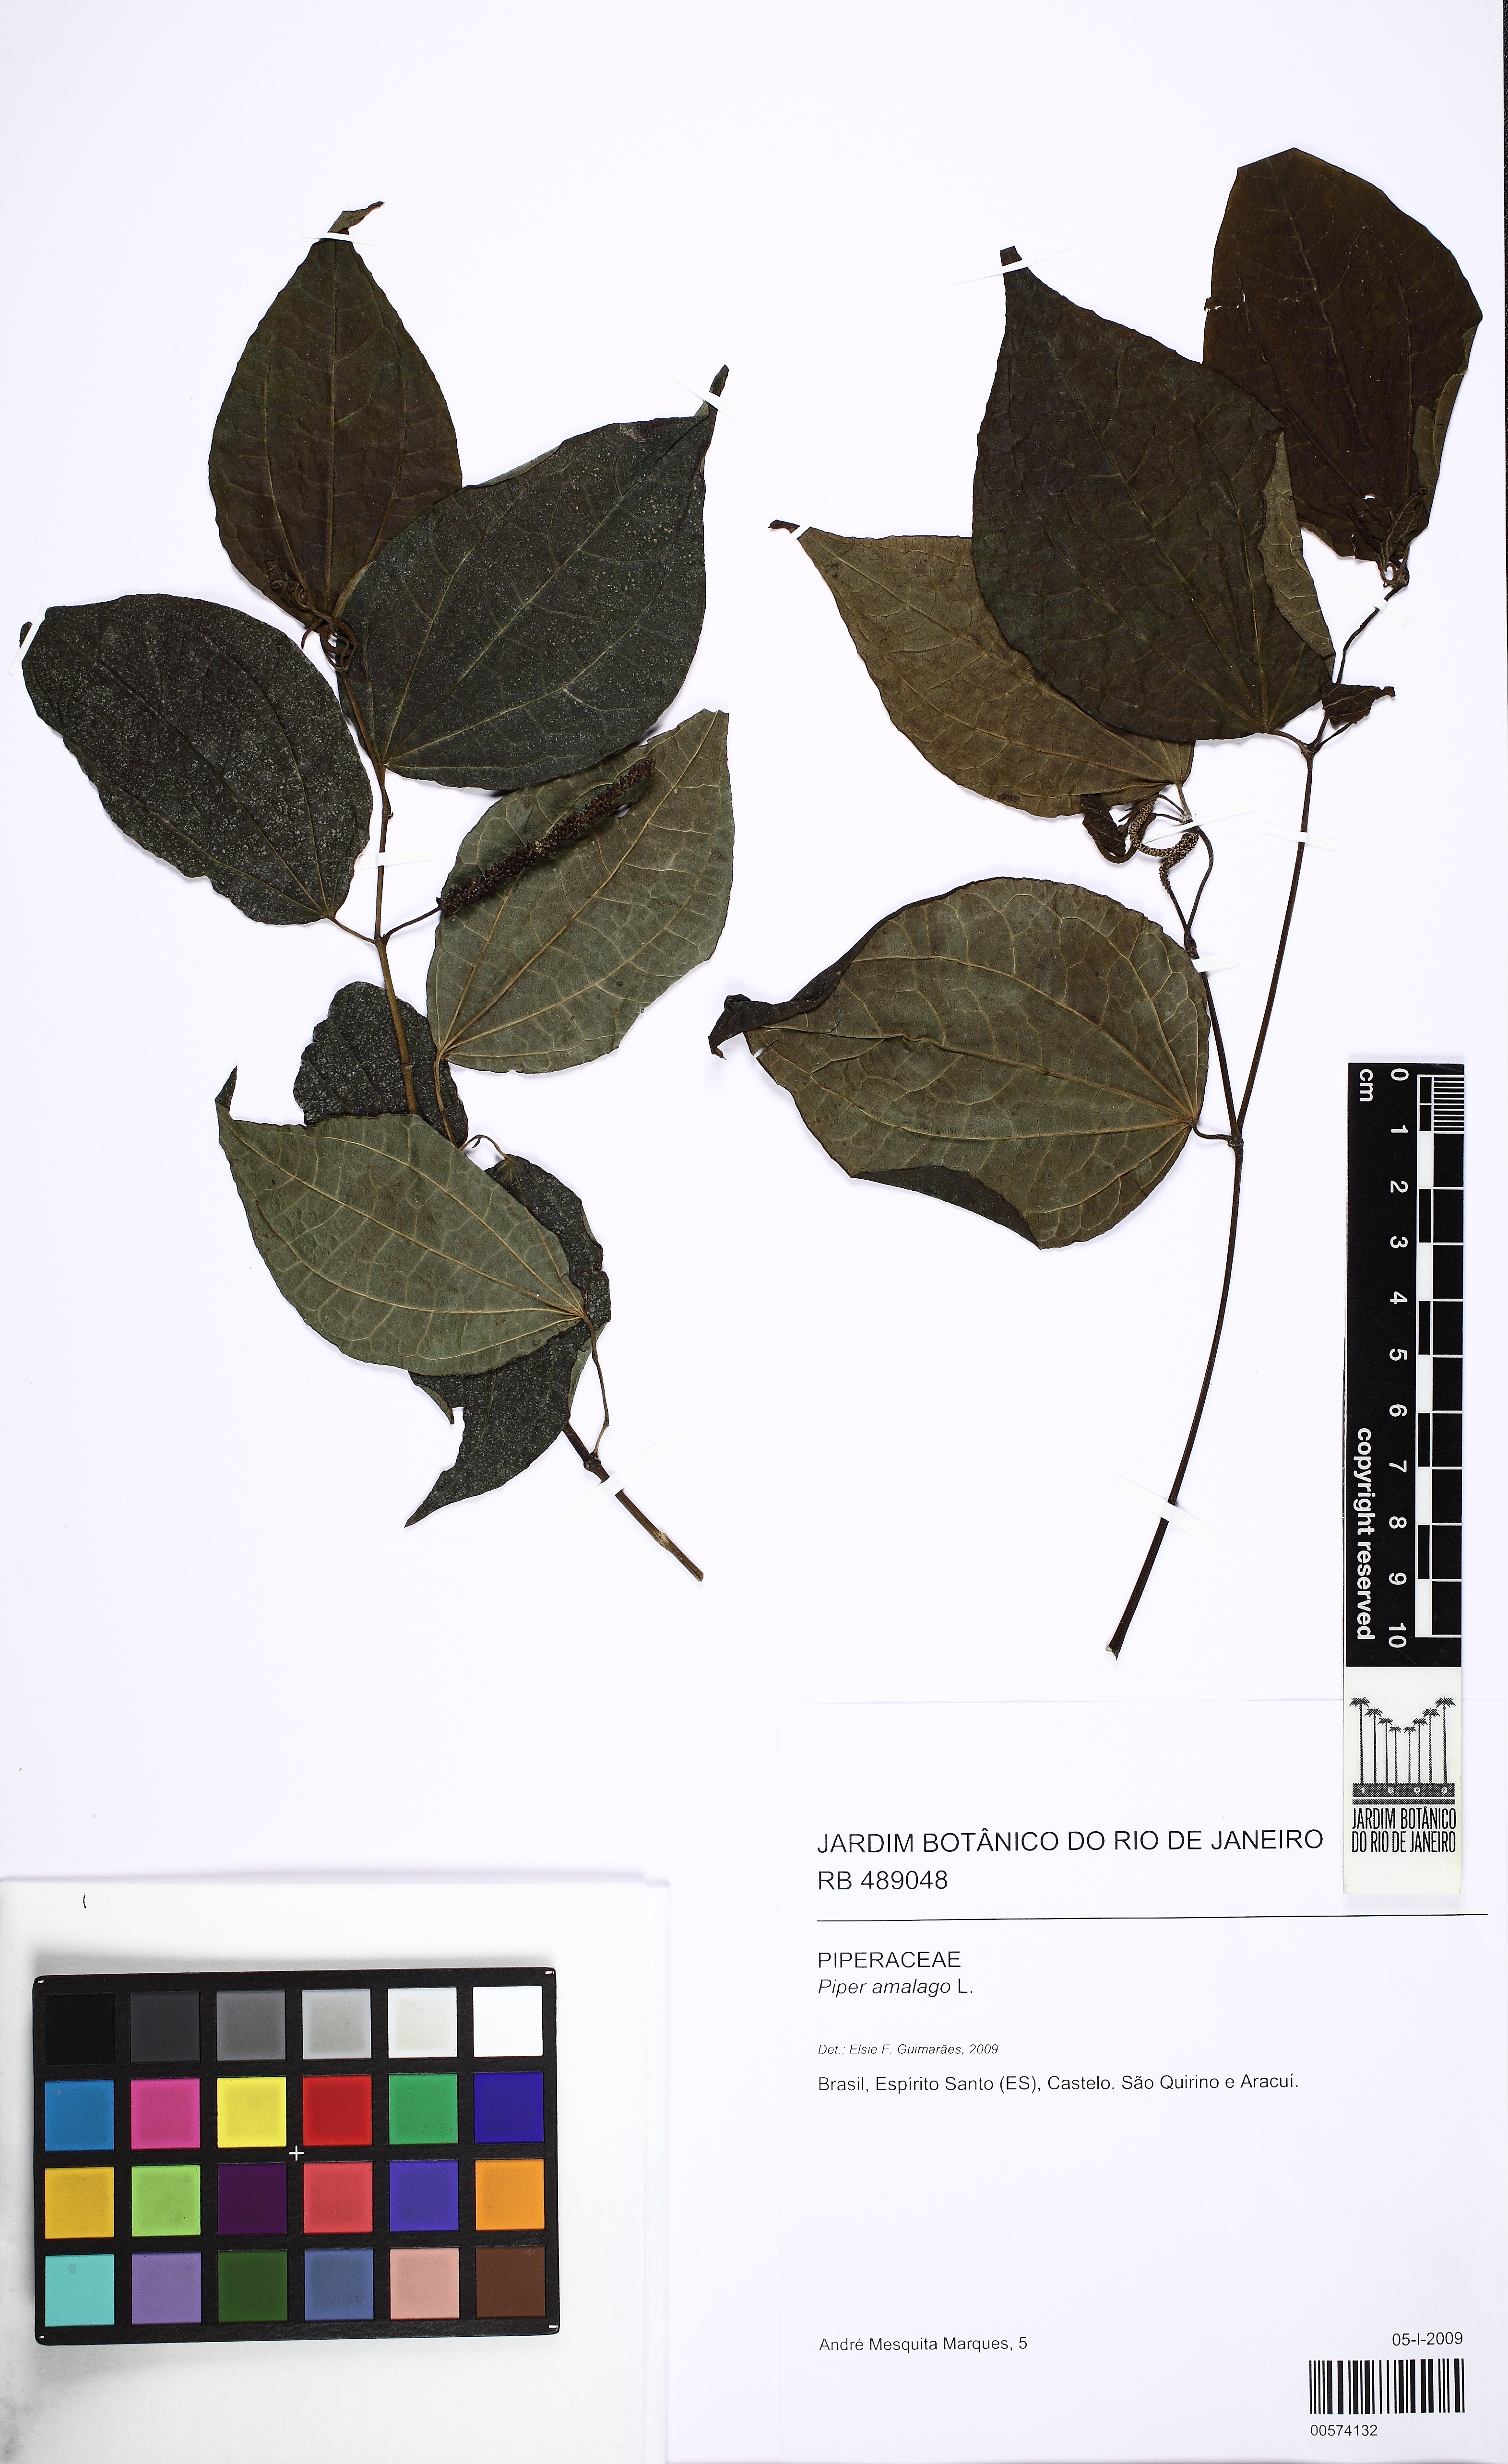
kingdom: Plantae
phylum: Tracheophyta
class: Magnoliopsida
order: Piperales
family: Piperaceae
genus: Piper
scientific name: Piper amalago
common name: Pepper-elder
